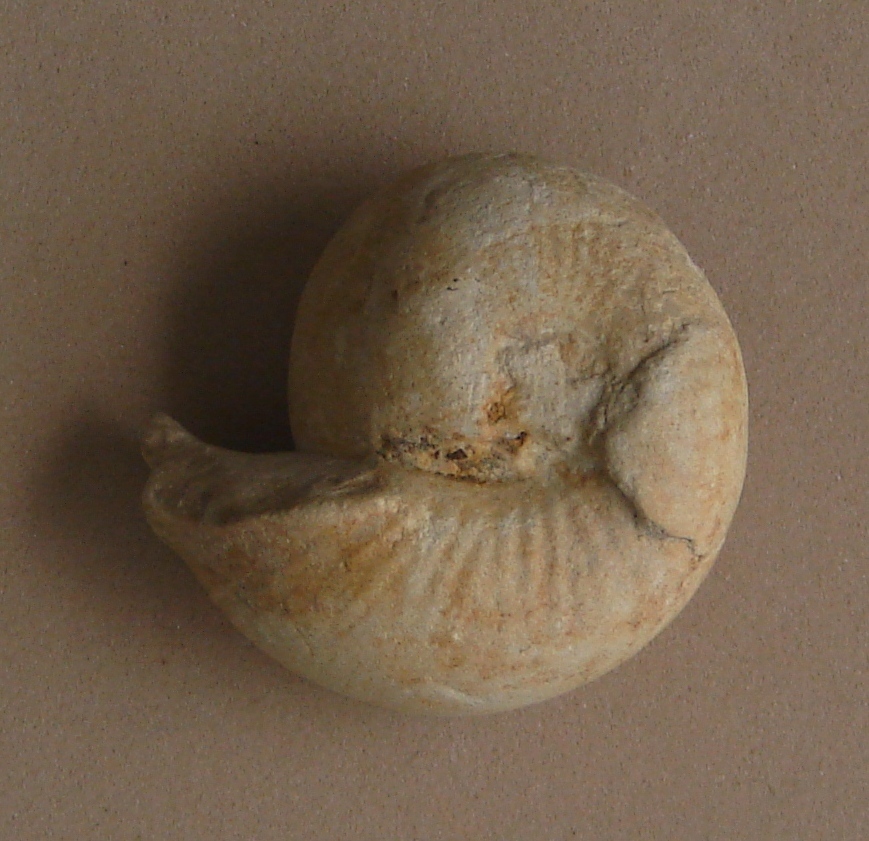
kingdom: Animalia
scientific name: Animalia
